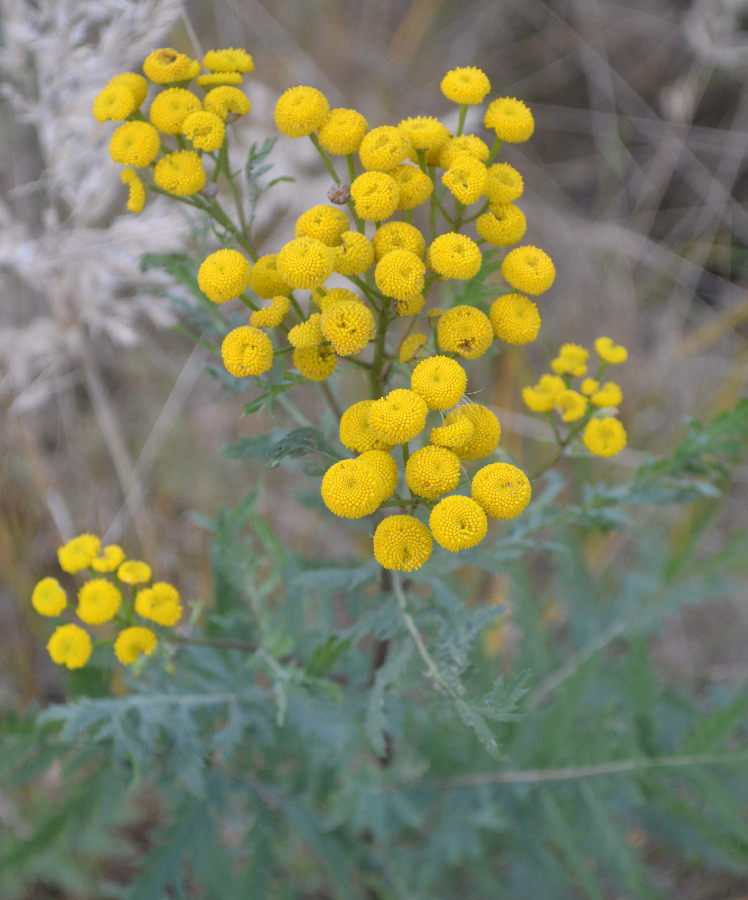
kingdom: Plantae
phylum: Tracheophyta
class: Magnoliopsida
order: Asterales
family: Asteraceae
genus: Tanacetum
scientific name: Tanacetum vulgare
